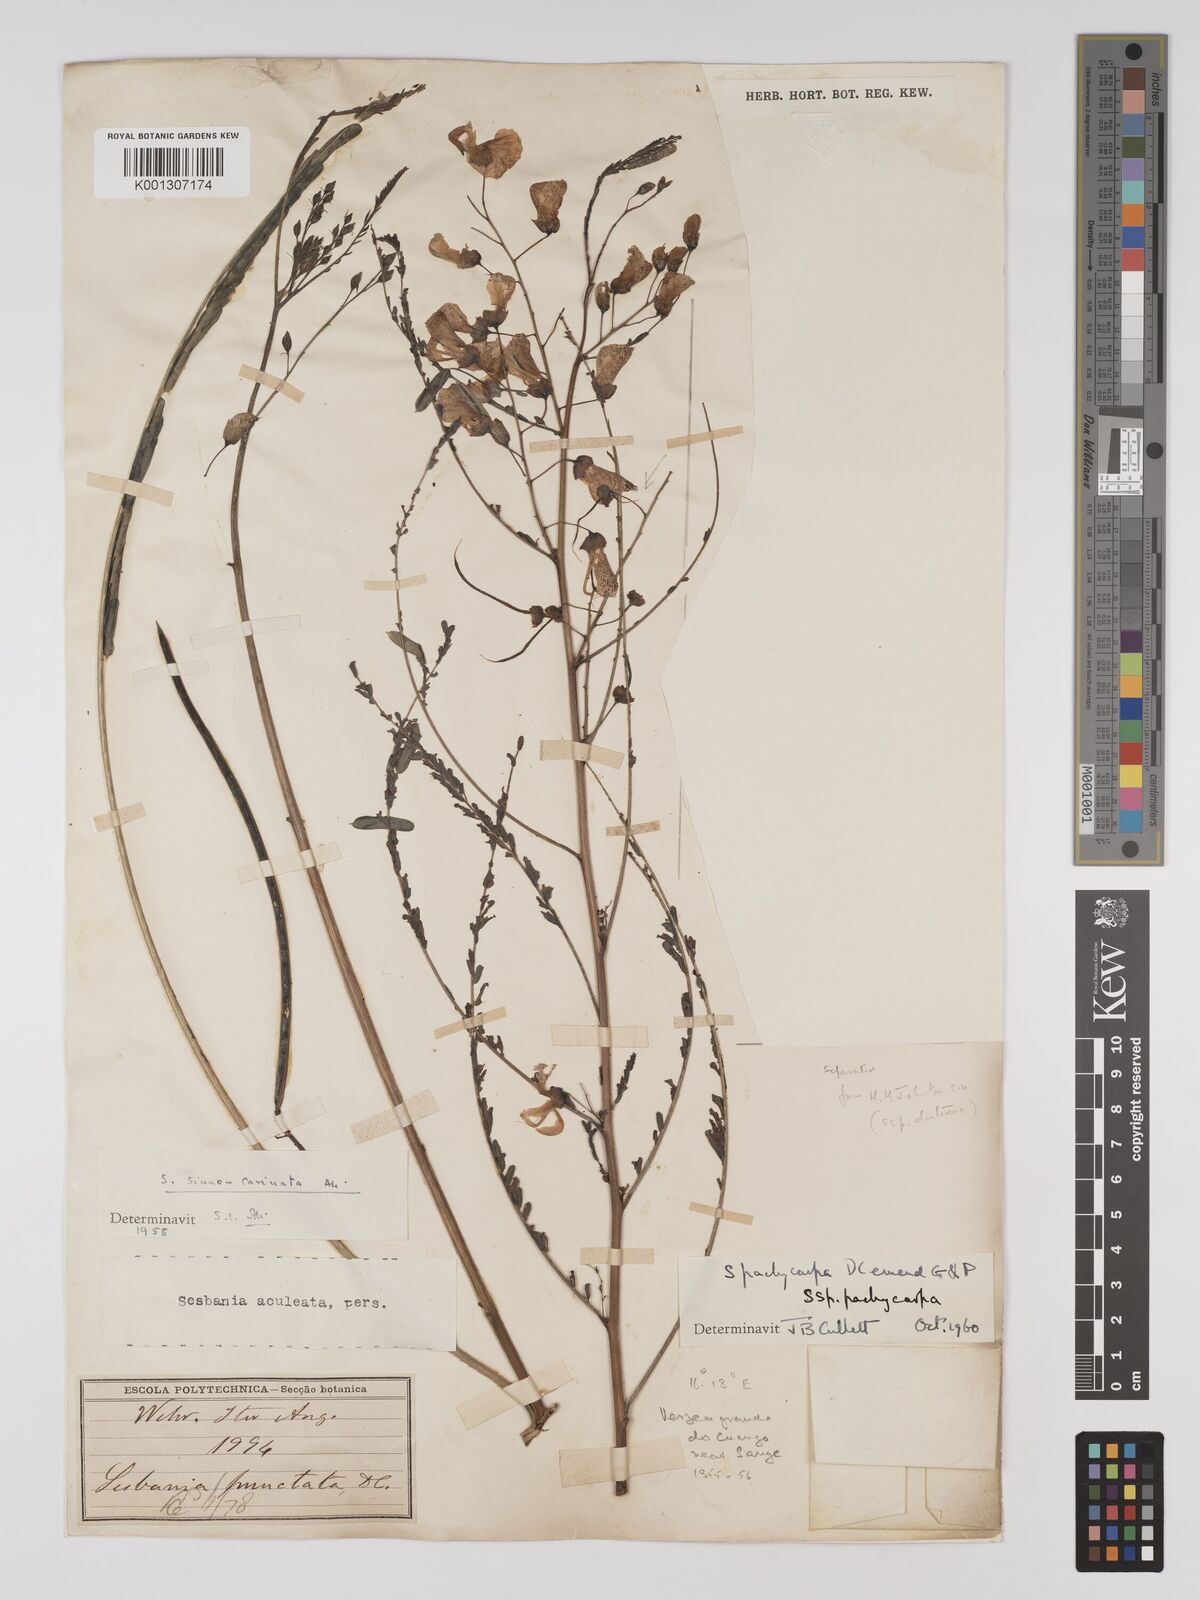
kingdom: Plantae
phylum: Tracheophyta
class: Magnoliopsida
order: Fabales
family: Fabaceae
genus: Sesbania
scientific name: Sesbania pachycarpa
